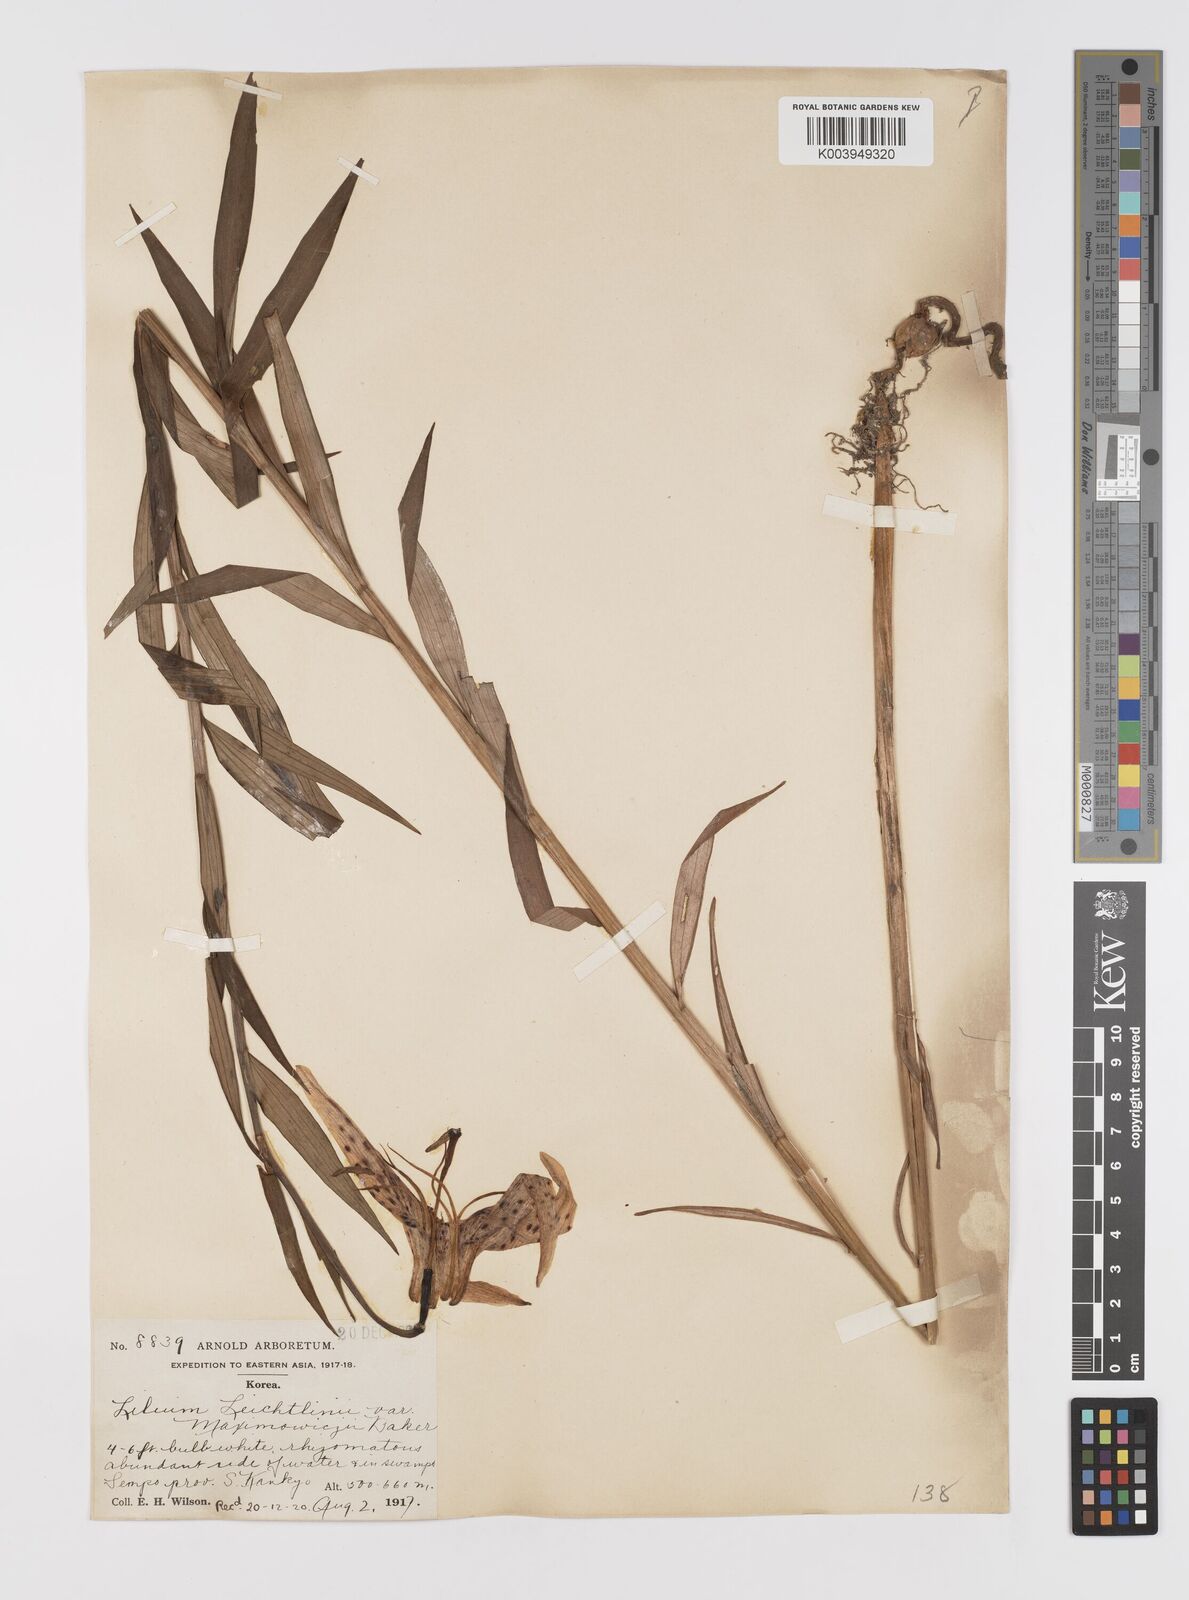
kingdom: Plantae
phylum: Tracheophyta
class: Liliopsida
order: Liliales
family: Liliaceae
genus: Lilium
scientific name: Lilium leichtlinii
